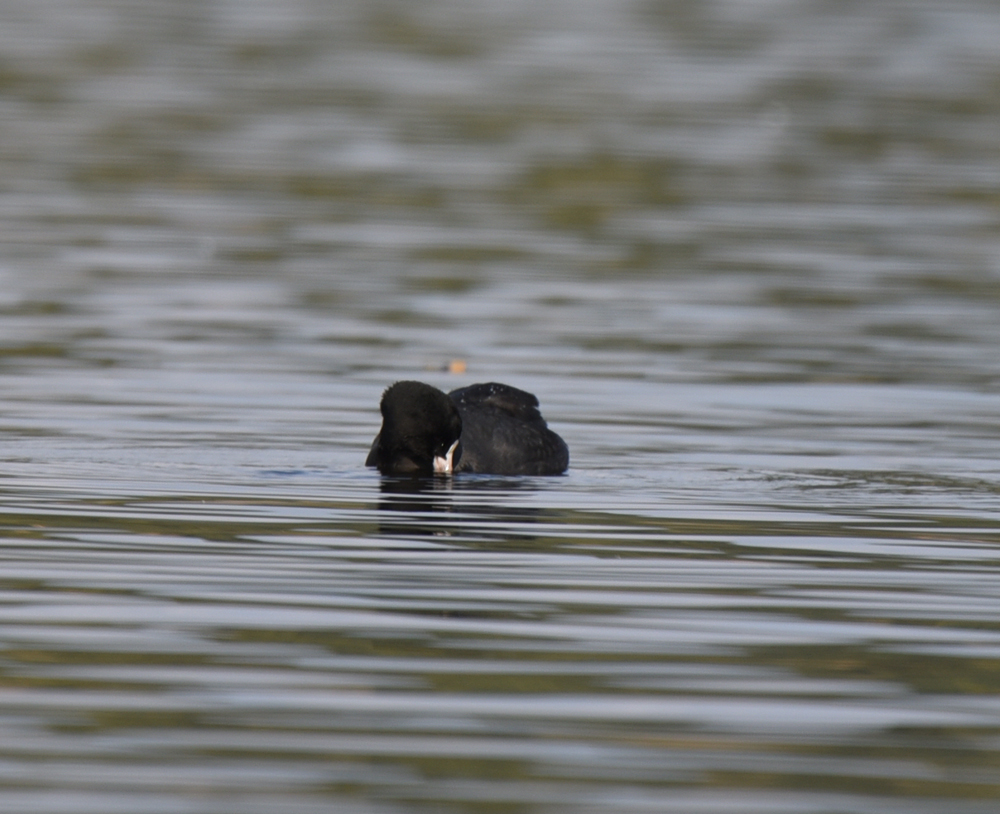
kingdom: Animalia
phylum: Chordata
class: Aves
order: Gruiformes
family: Rallidae
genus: Fulica
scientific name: Fulica atra
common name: Eurasian coot
